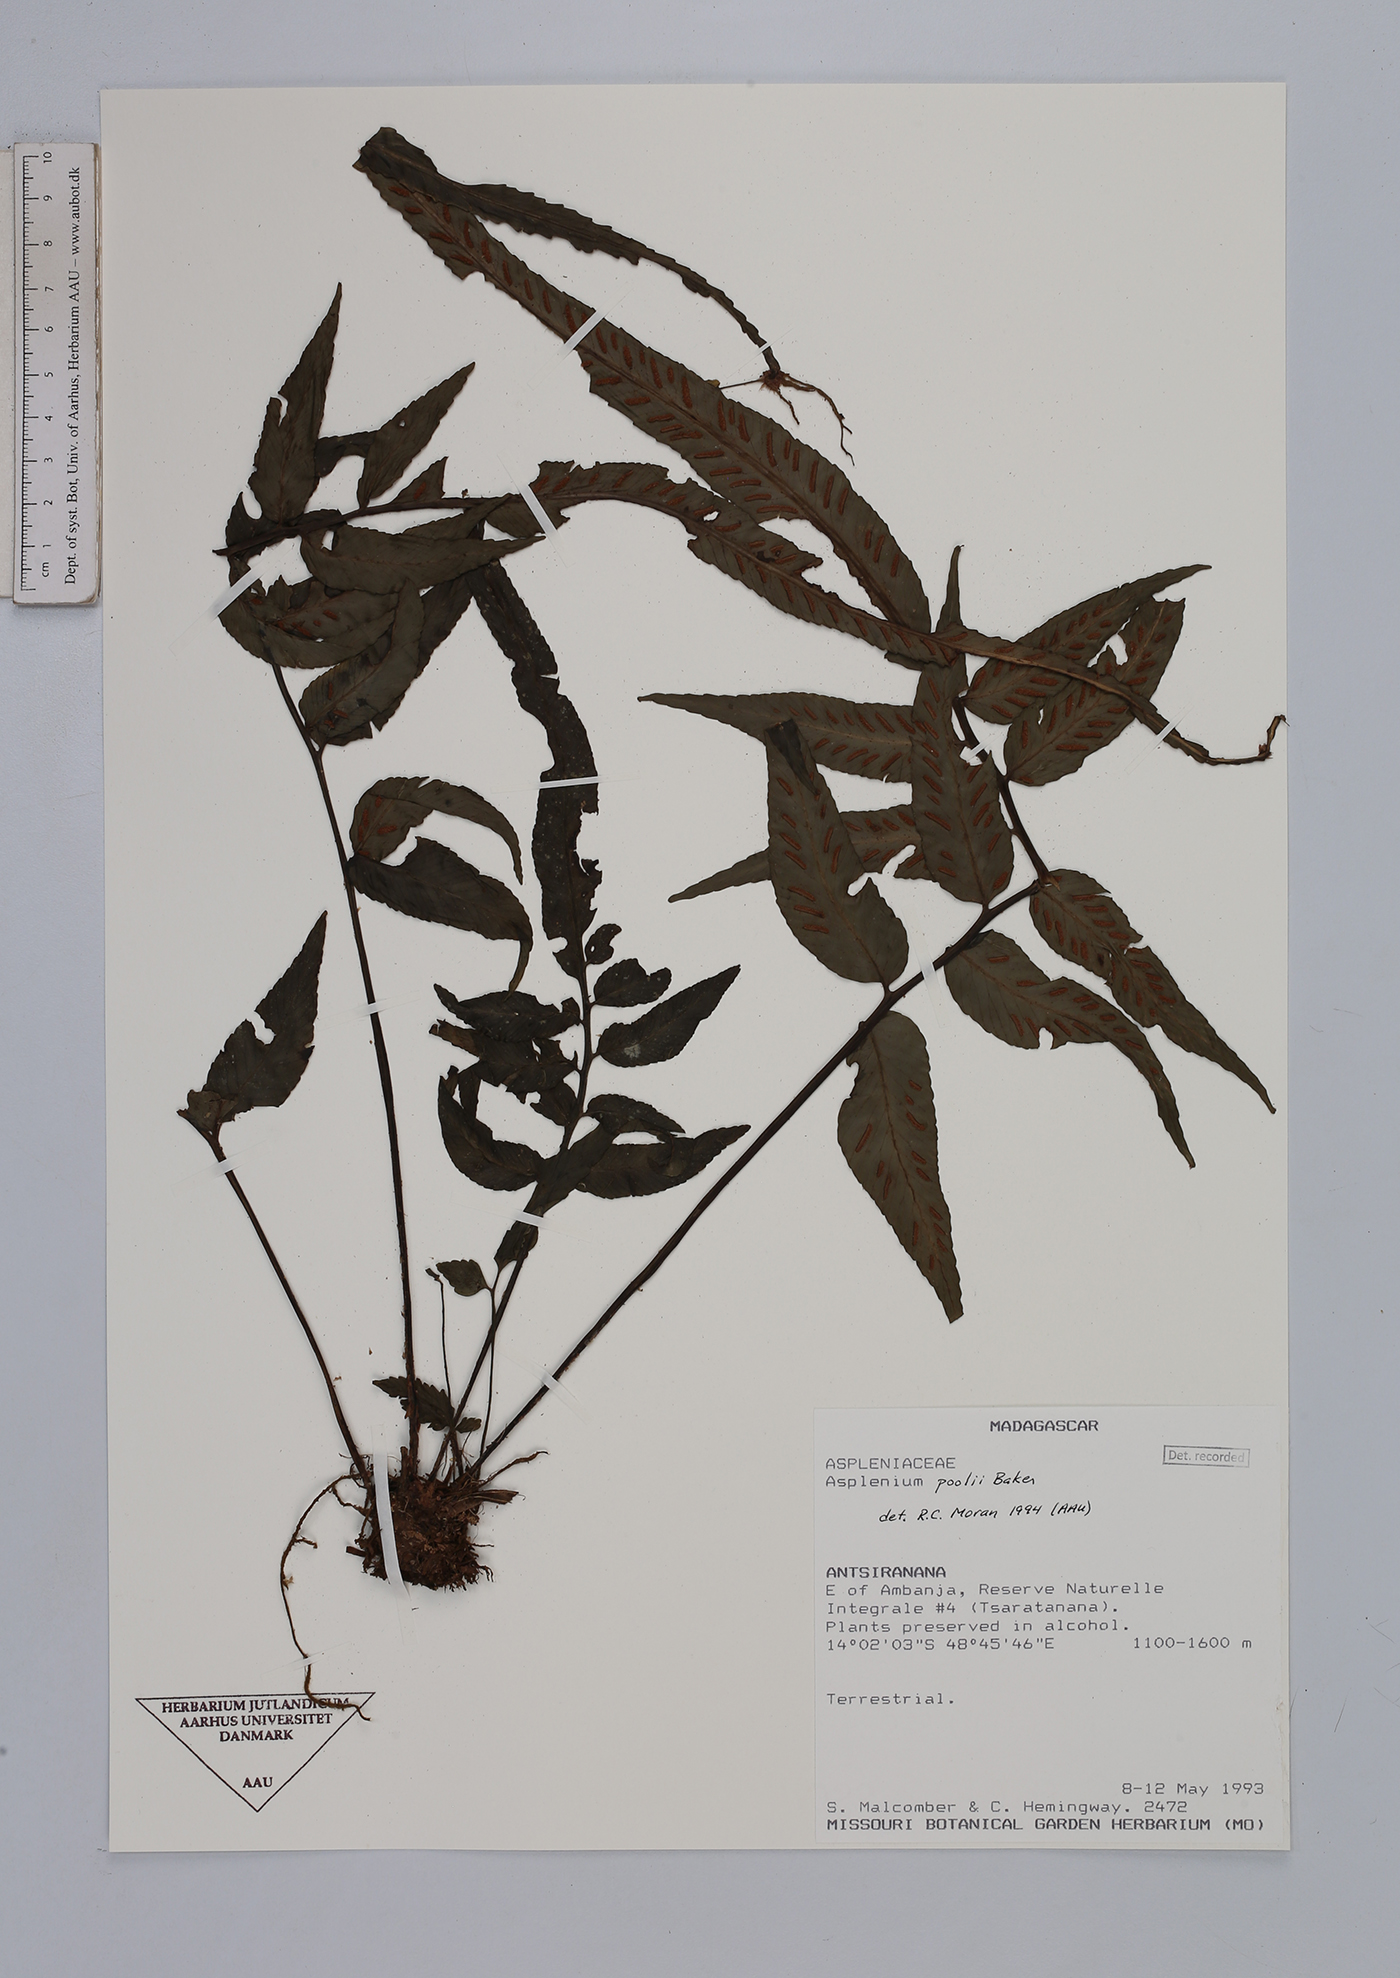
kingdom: Plantae
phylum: Tracheophyta
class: Polypodiopsida
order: Polypodiales
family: Aspleniaceae
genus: Asplenium
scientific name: Asplenium poolii
